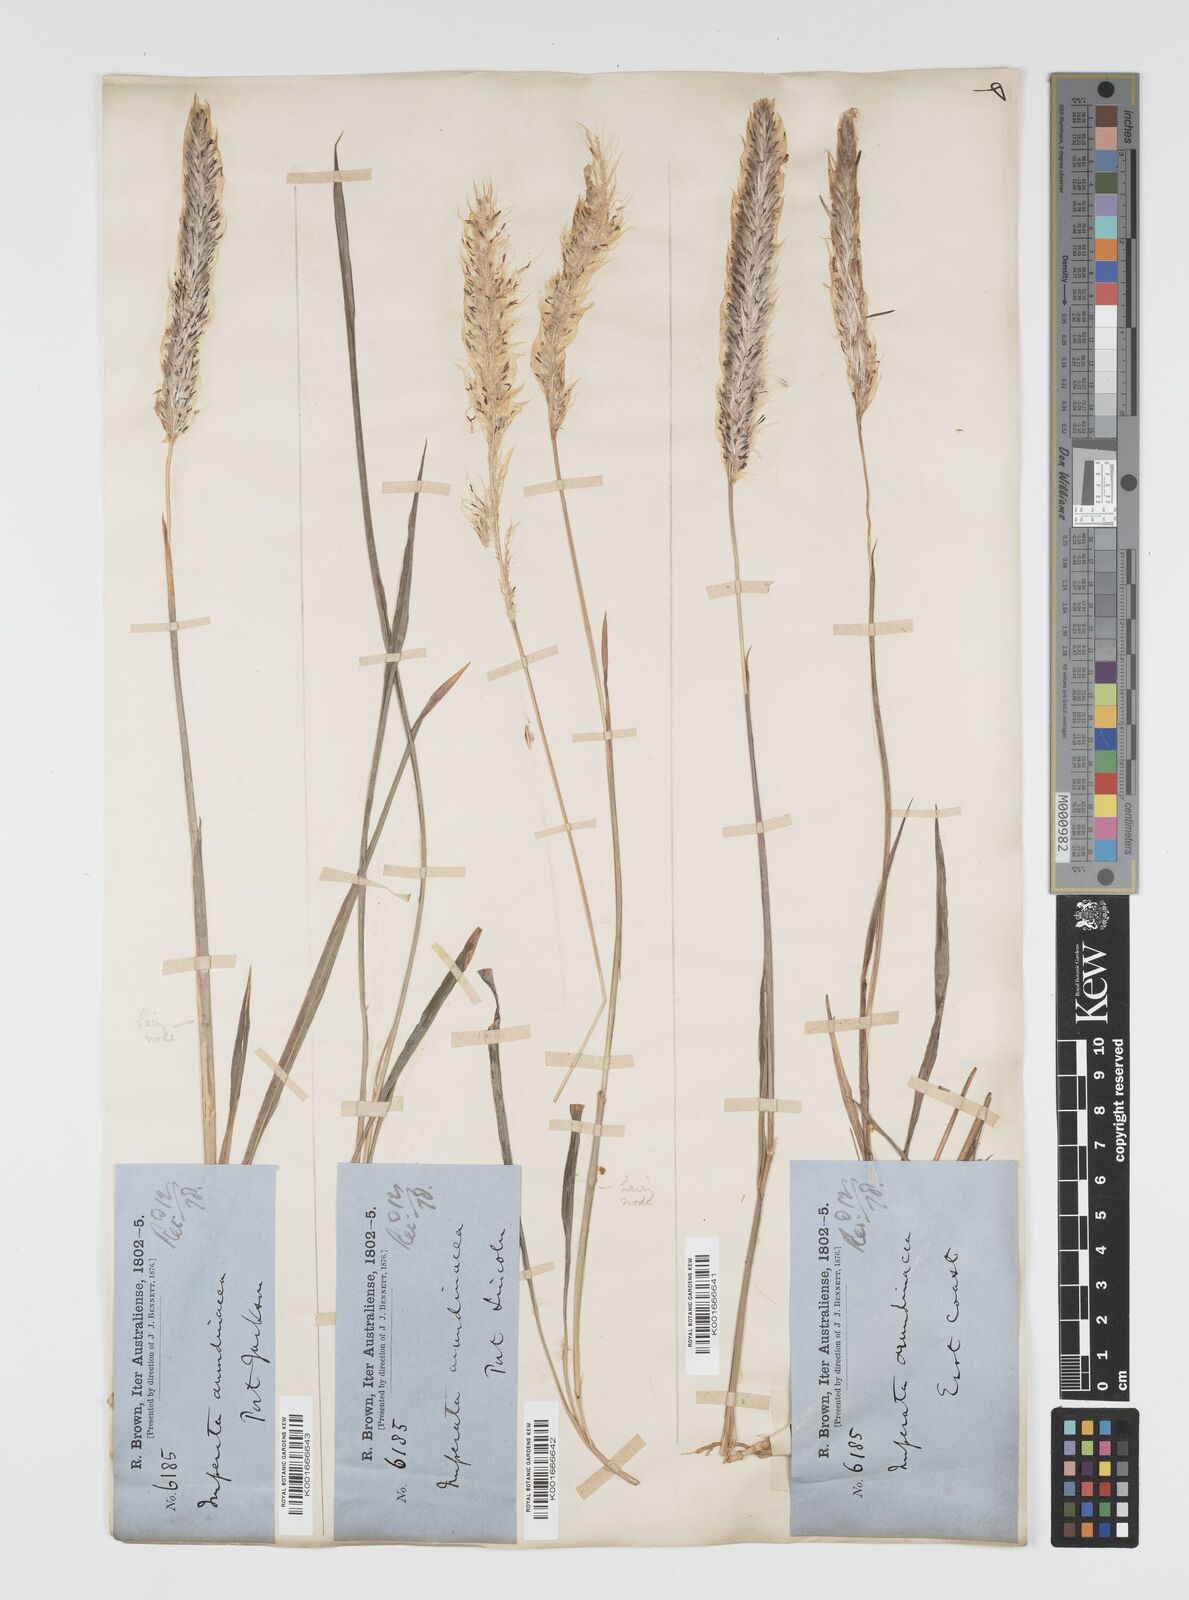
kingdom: Plantae
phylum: Tracheophyta
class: Liliopsida
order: Poales
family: Poaceae
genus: Imperata
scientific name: Imperata cylindrica
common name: Cogongrass
